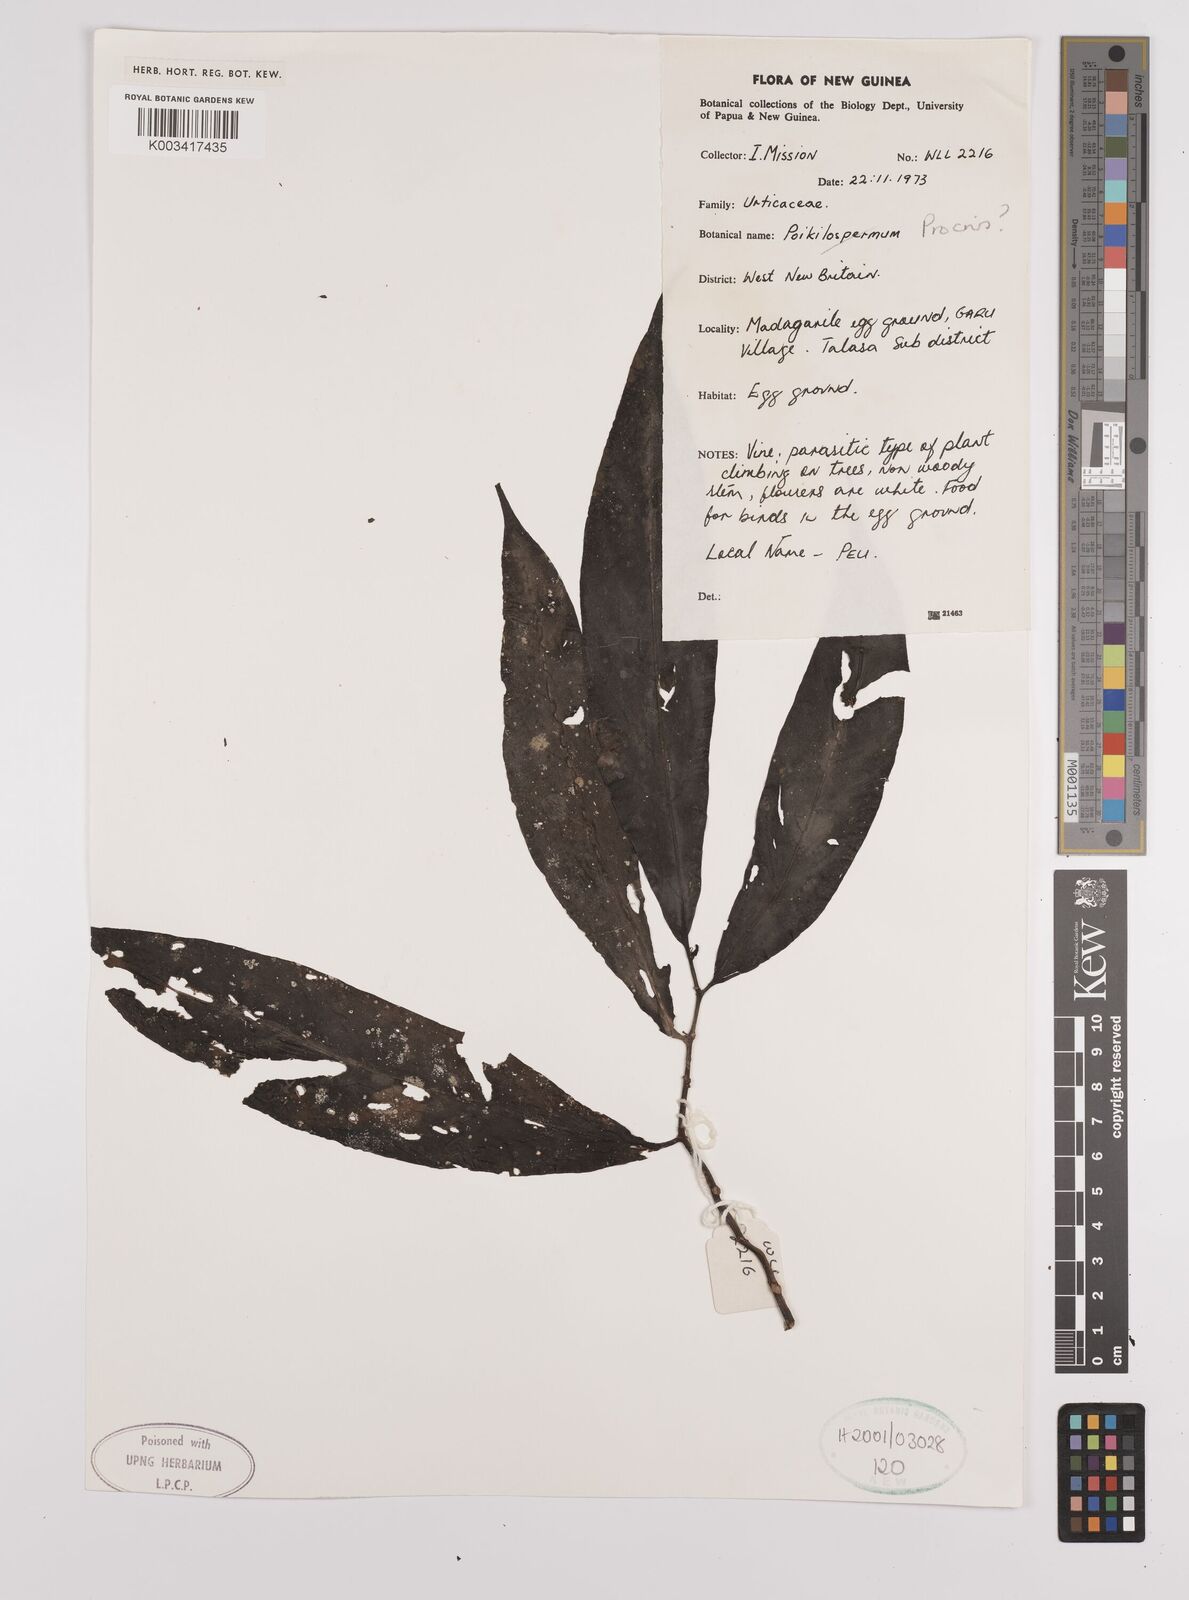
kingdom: Plantae
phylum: Tracheophyta
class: Magnoliopsida
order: Rosales
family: Urticaceae
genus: Procris
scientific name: Procris
